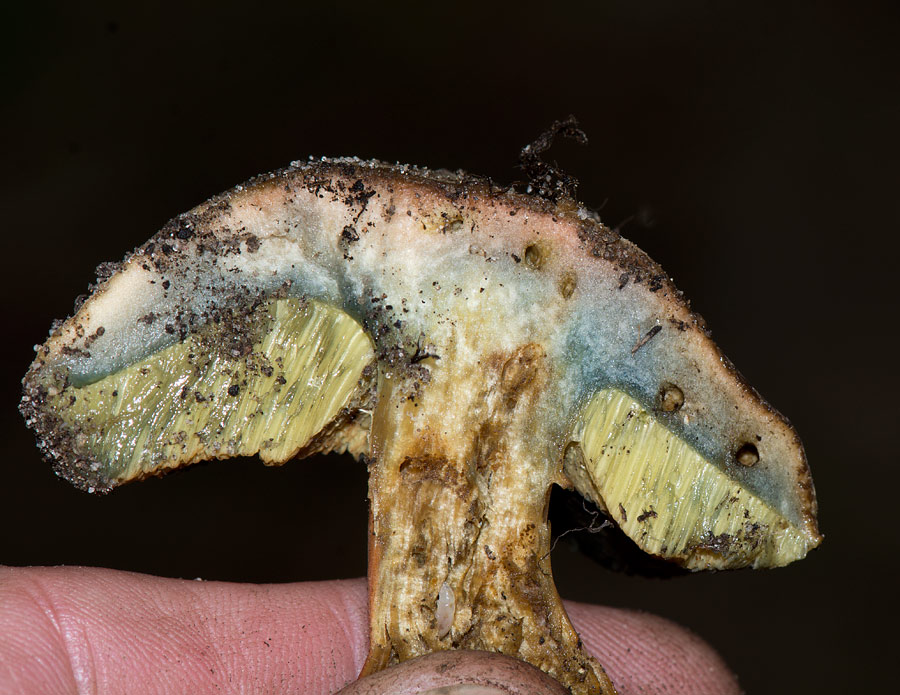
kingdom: Fungi
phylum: Basidiomycota
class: Agaricomycetes
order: Boletales
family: Boletaceae
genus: Hortiboletus
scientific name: Hortiboletus bubalinus
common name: aurora-rørhat
